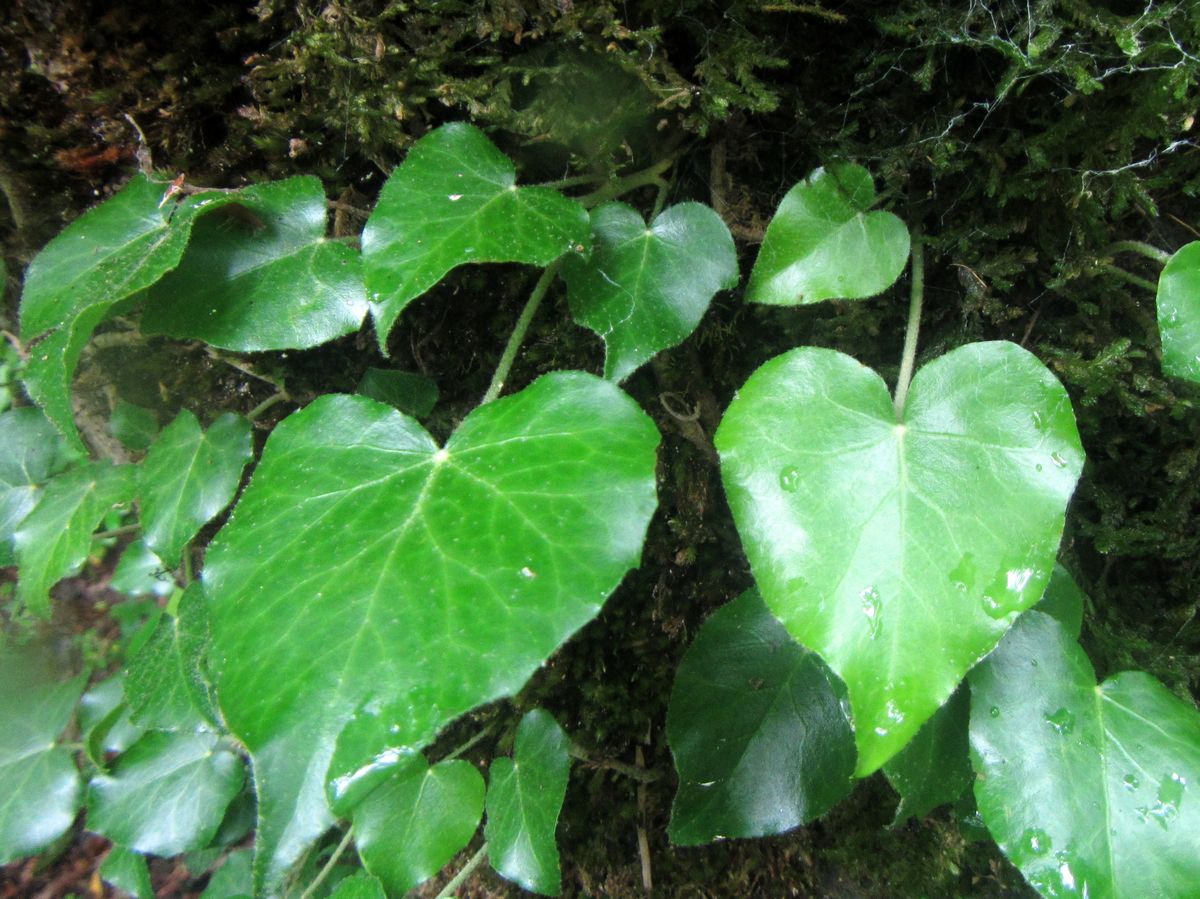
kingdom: Plantae
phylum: Tracheophyta
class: Magnoliopsida
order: Apiales
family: Araliaceae
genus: Hedera
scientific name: Hedera colchica
